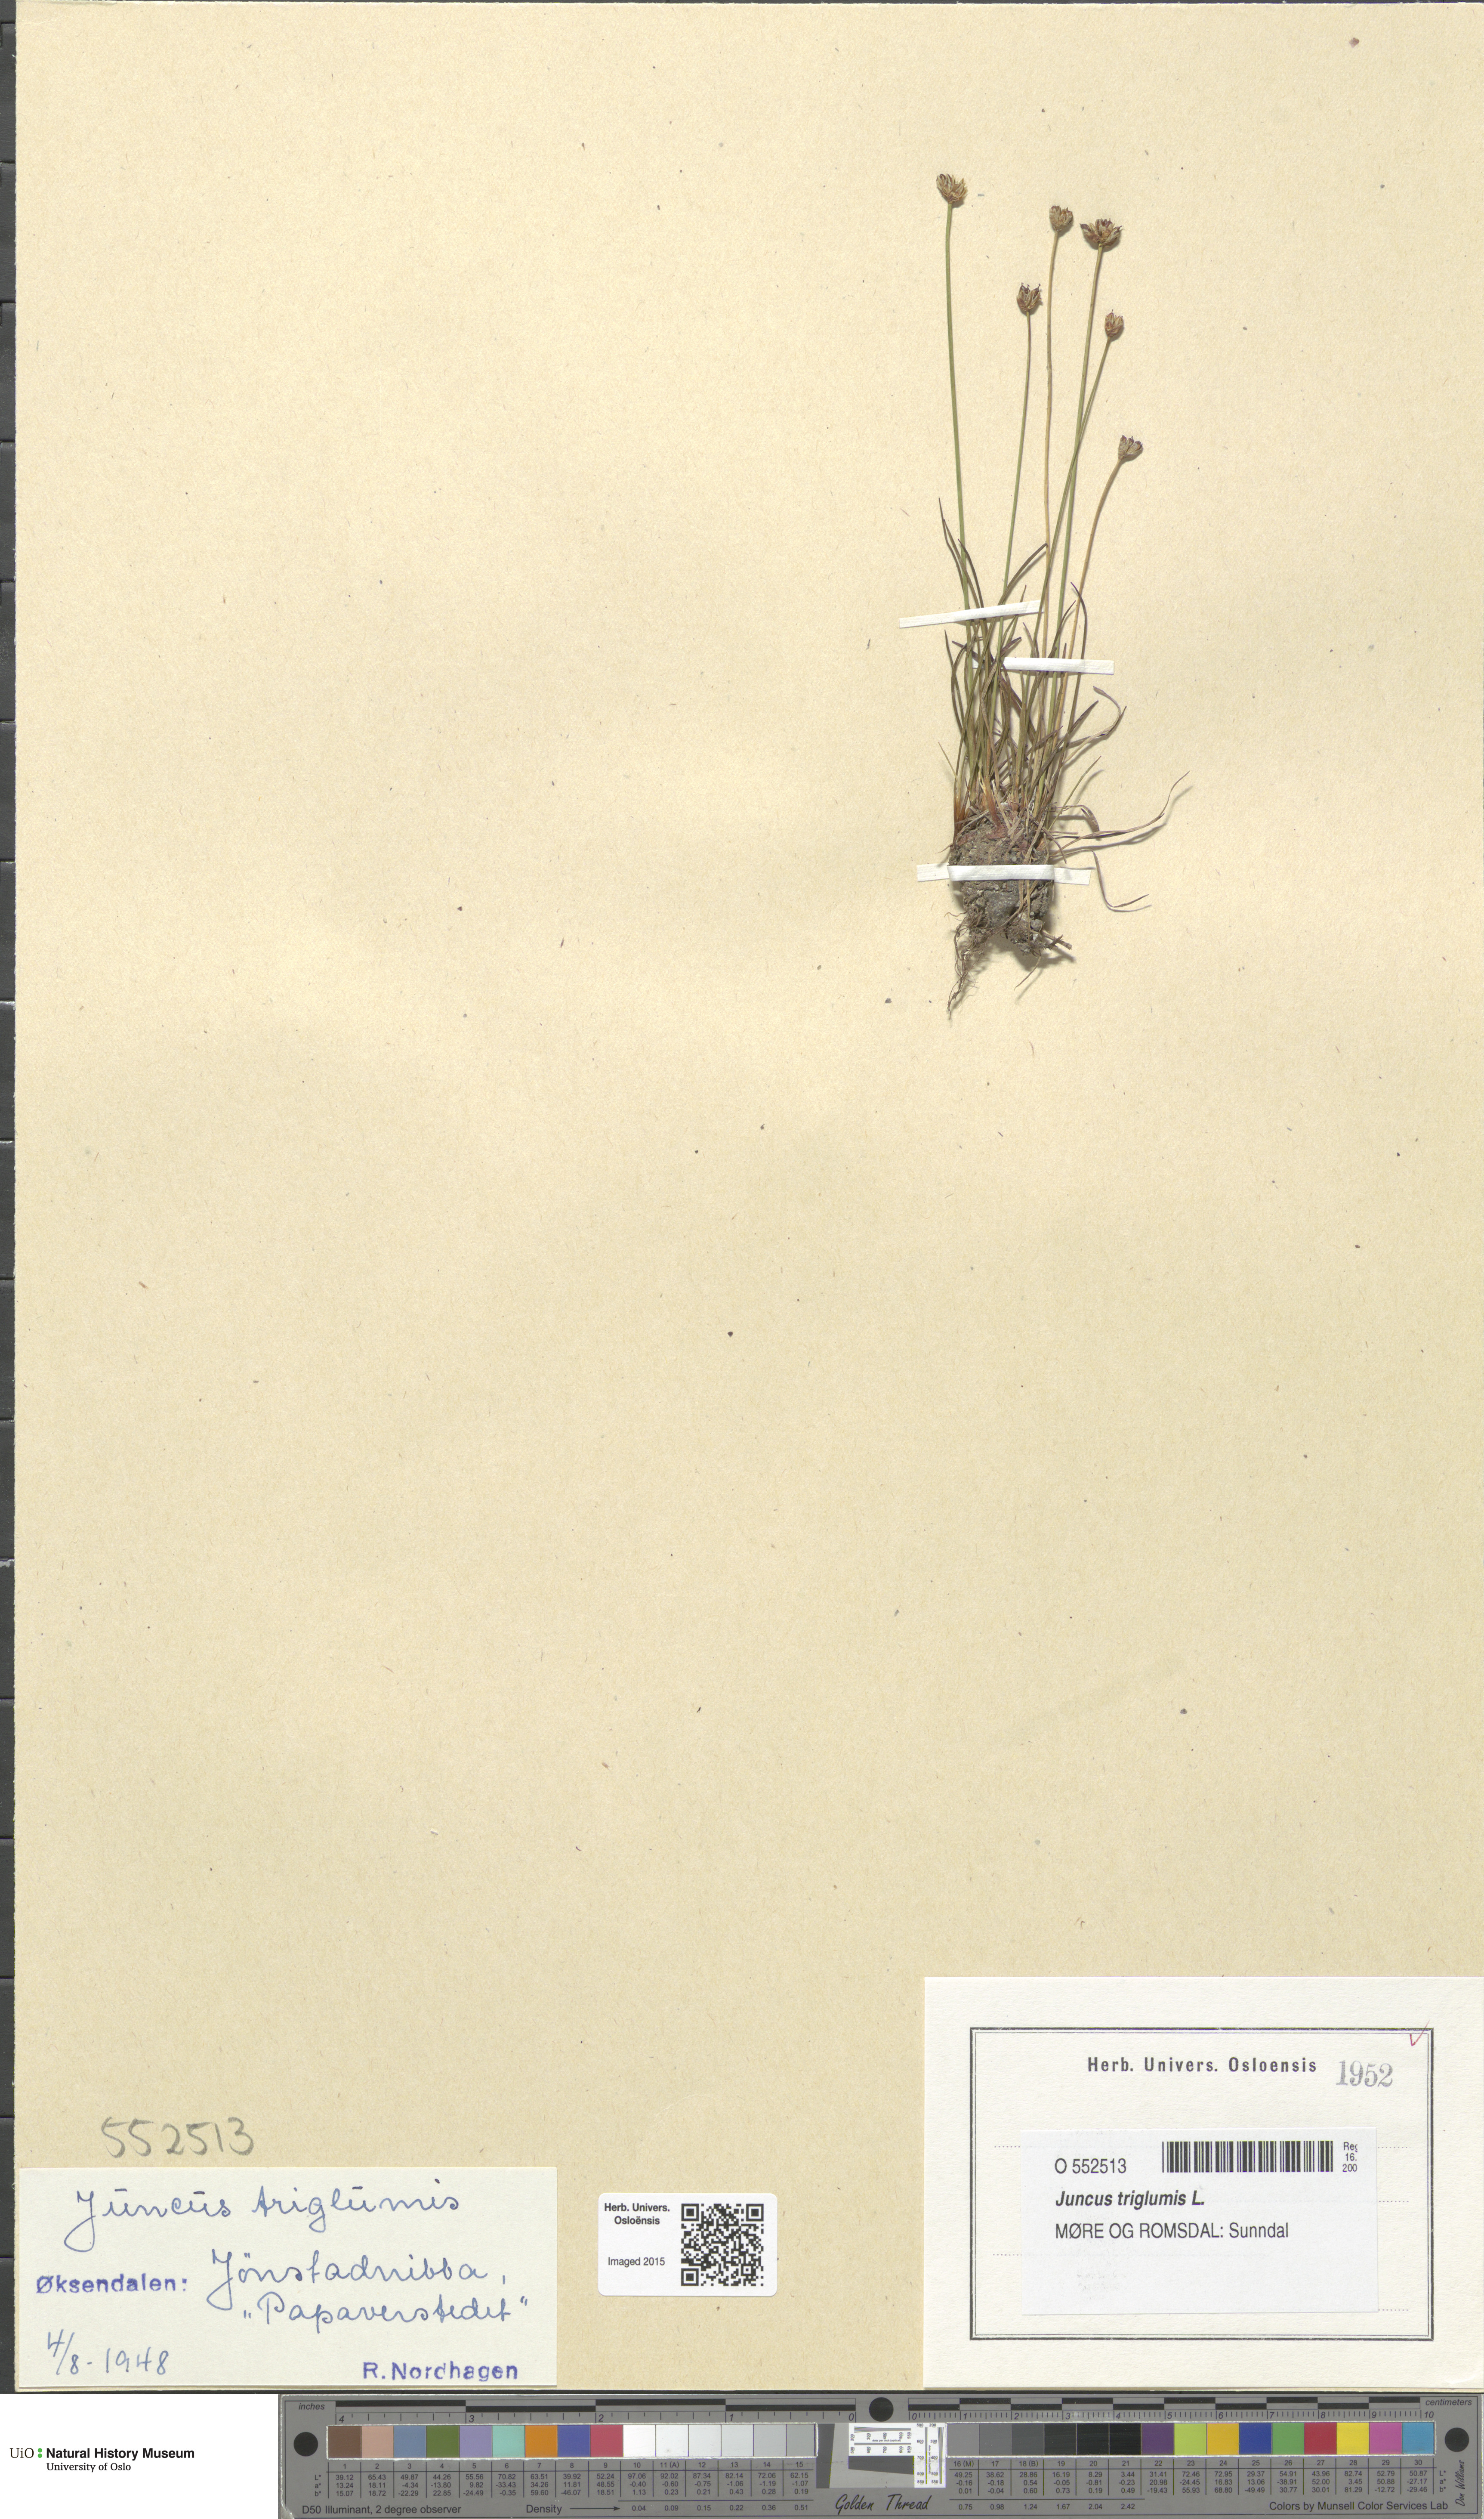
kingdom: Plantae
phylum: Tracheophyta
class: Liliopsida
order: Poales
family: Juncaceae
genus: Juncus
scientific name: Juncus triglumis
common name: Three-flowered rush
